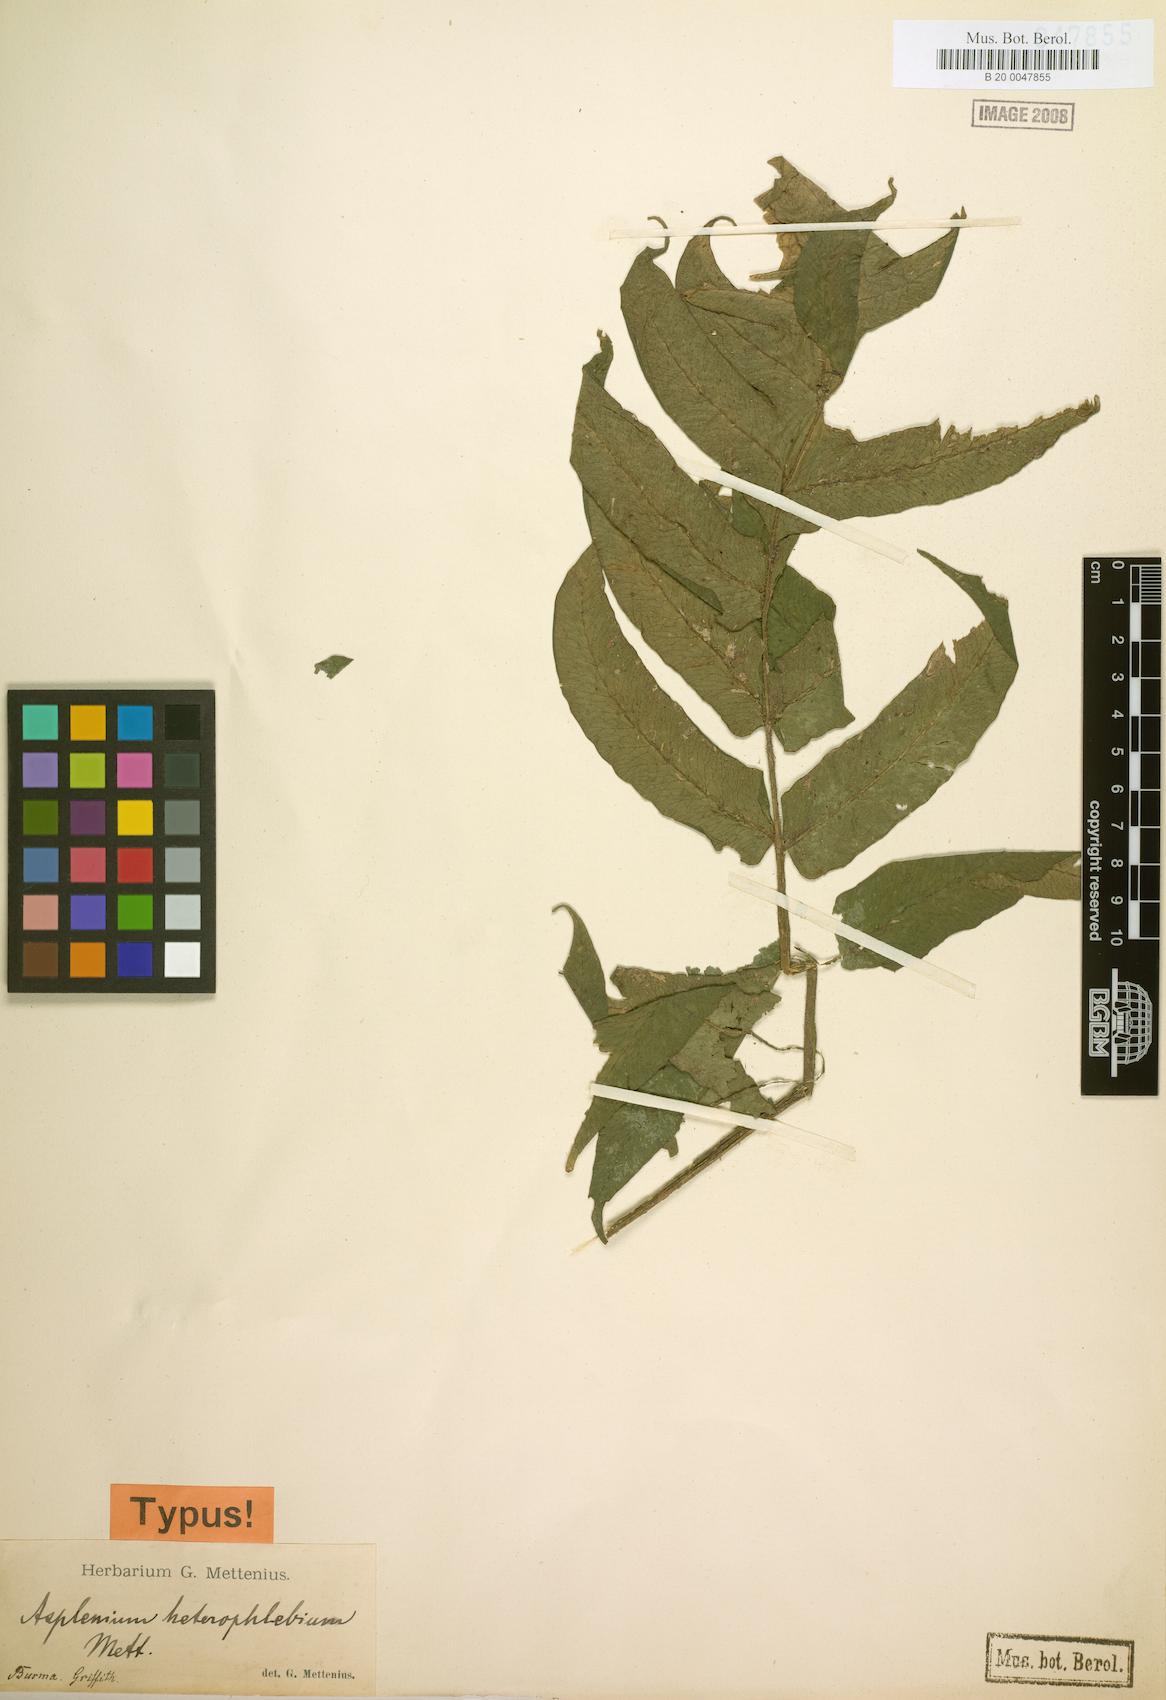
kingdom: Plantae
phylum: Tracheophyta
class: Polypodiopsida
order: Polypodiales
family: Athyriaceae
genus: Deparia
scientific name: Deparia heterophlebia
